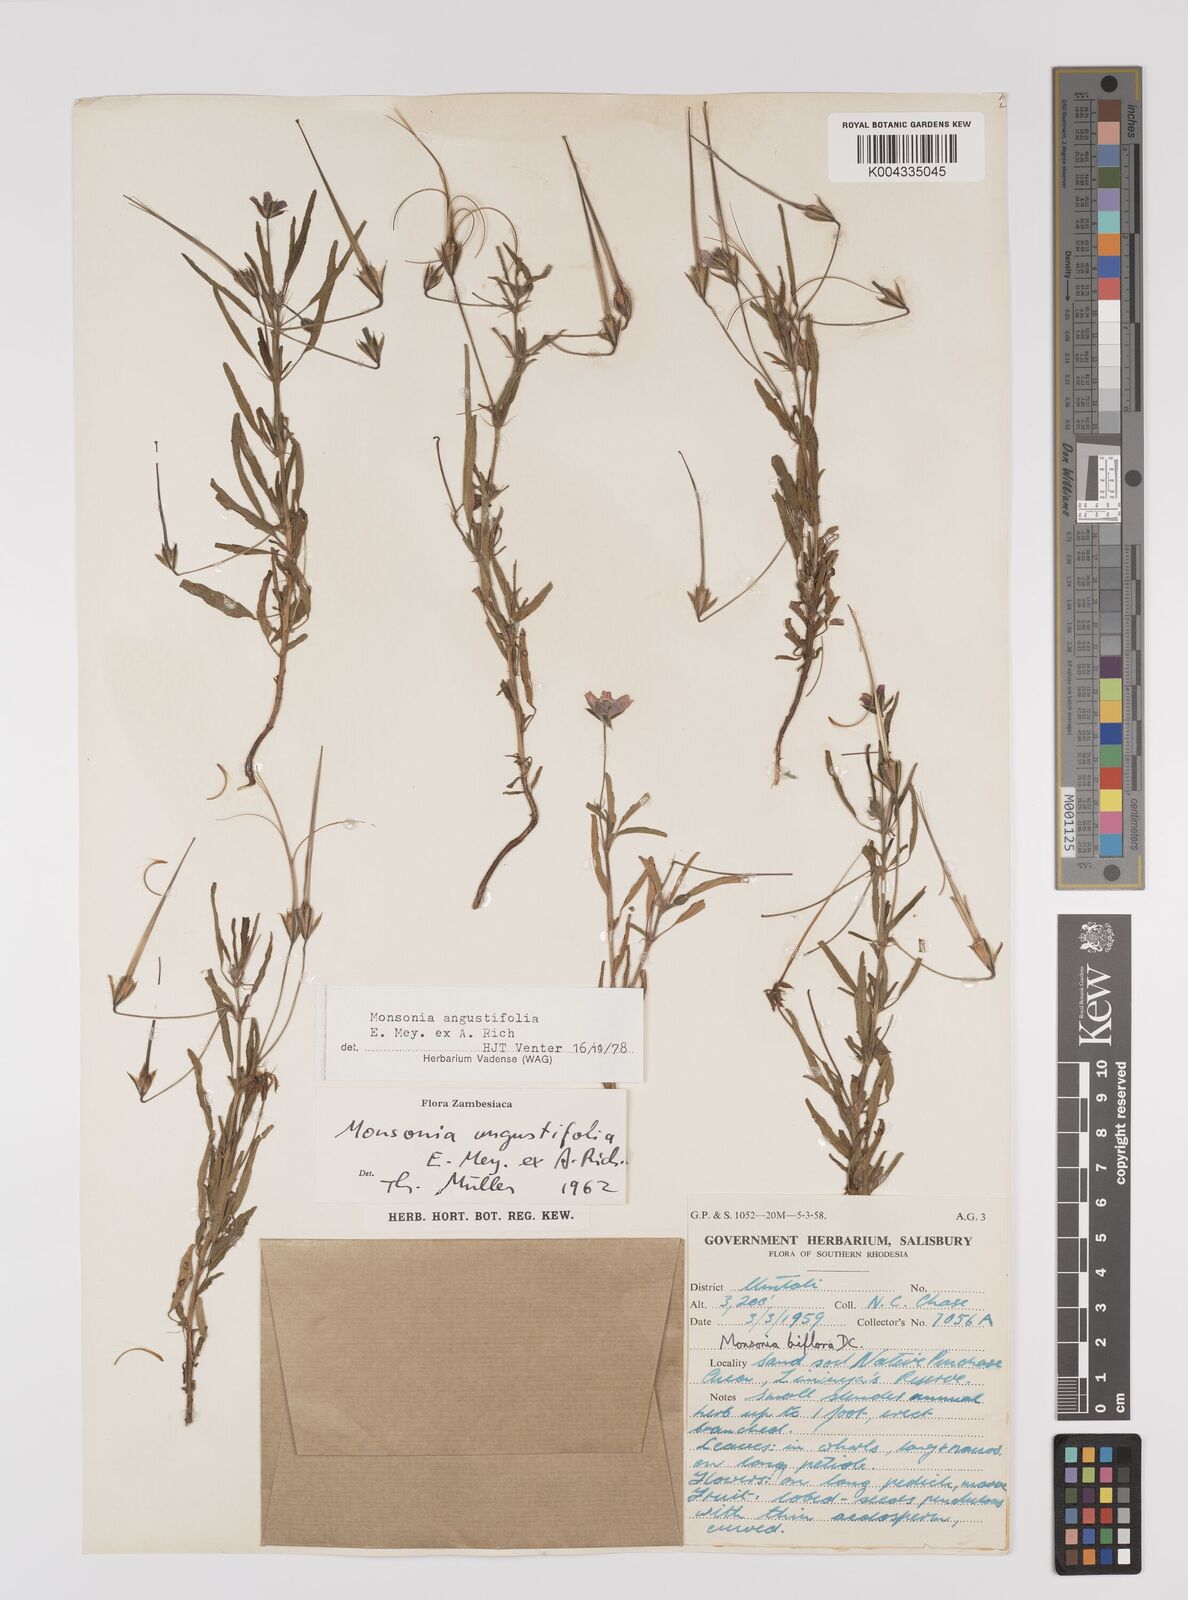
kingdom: Plantae
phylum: Tracheophyta
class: Magnoliopsida
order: Geraniales
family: Geraniaceae
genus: Monsonia
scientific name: Monsonia angustifolia
